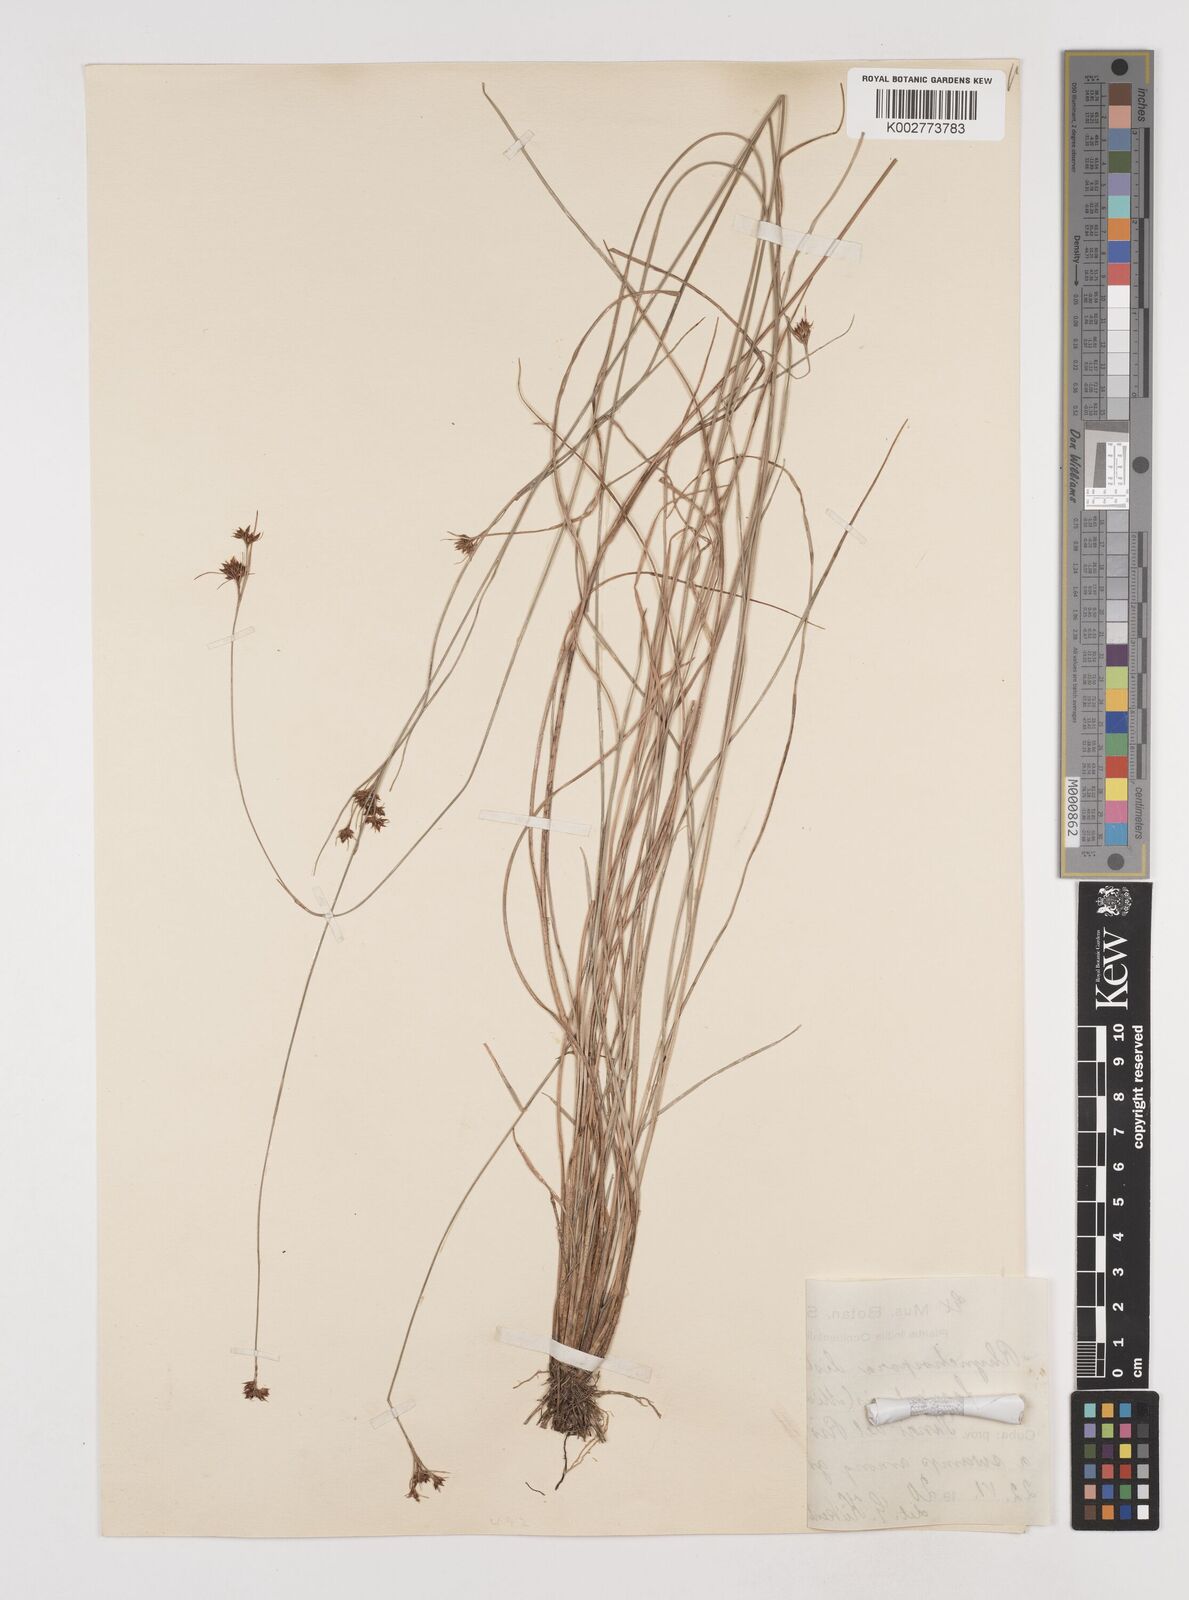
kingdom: Plantae
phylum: Tracheophyta
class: Liliopsida
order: Poales
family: Cyperaceae
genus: Rhynchospora
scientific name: Rhynchospora fascicularis
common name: Fascicled beak sedge
